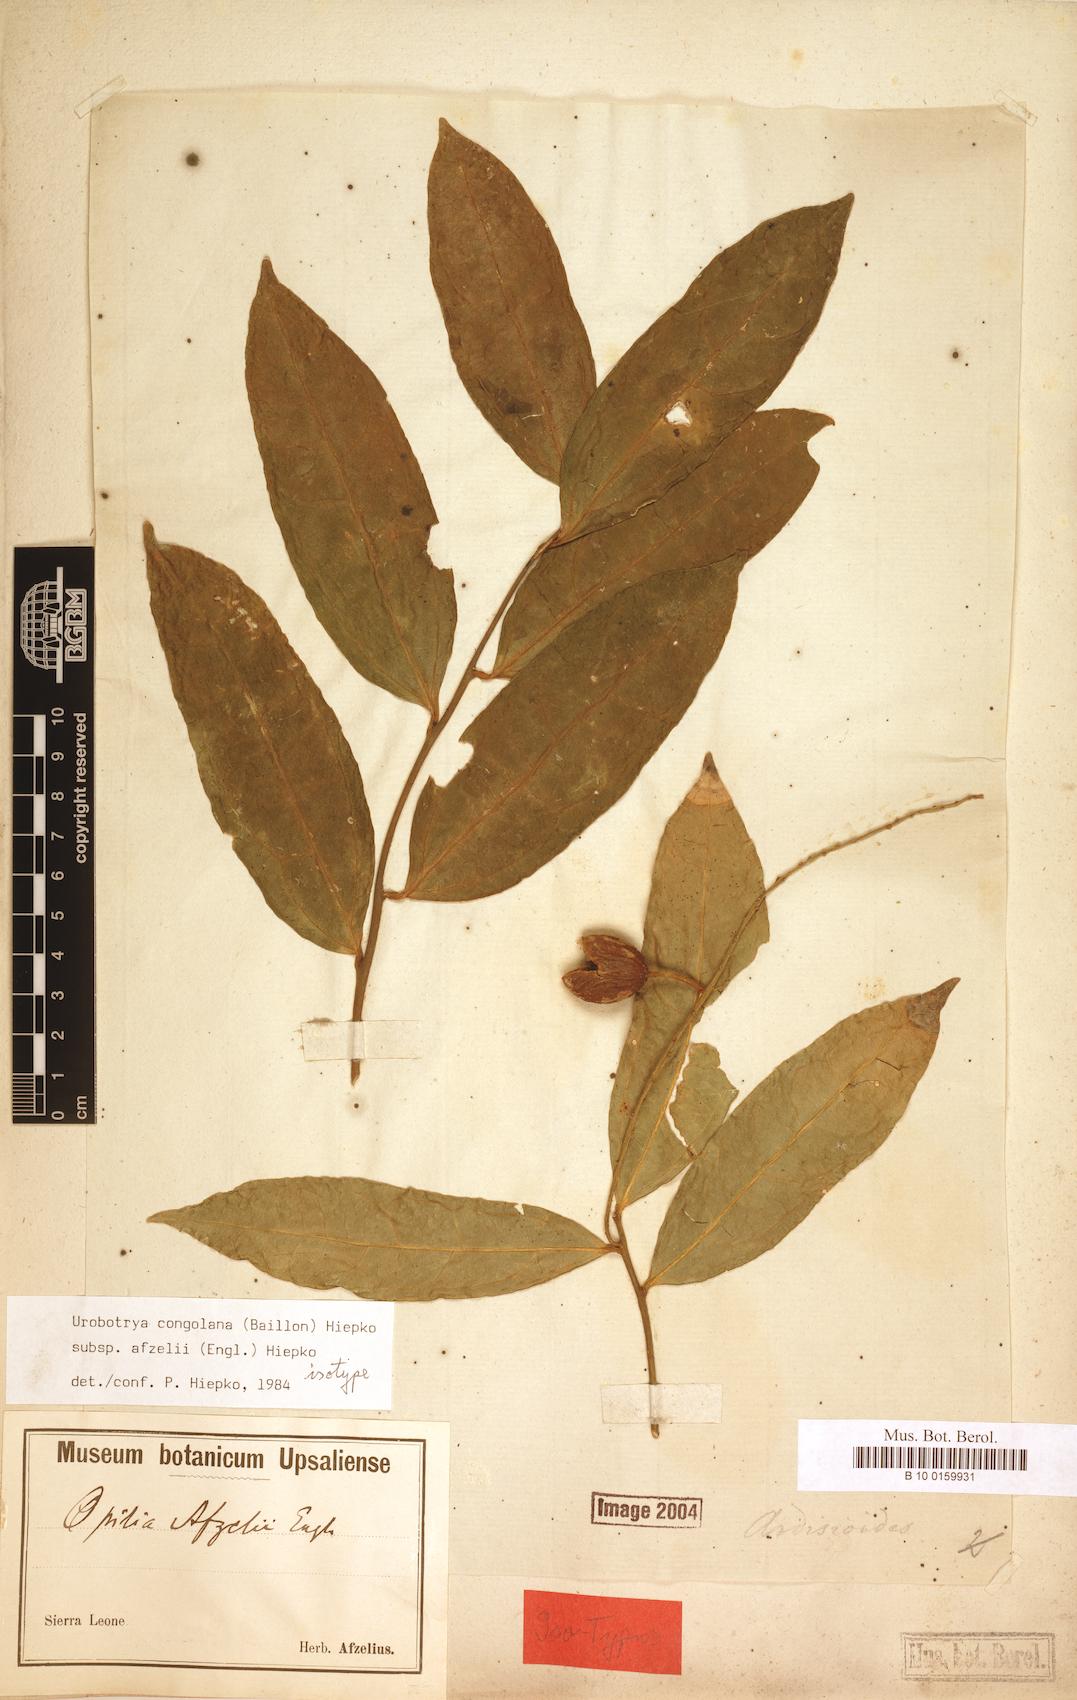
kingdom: Plantae
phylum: Tracheophyta
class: Magnoliopsida
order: Santalales
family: Opiliaceae
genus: Urobotrya
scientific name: Urobotrya congolana
